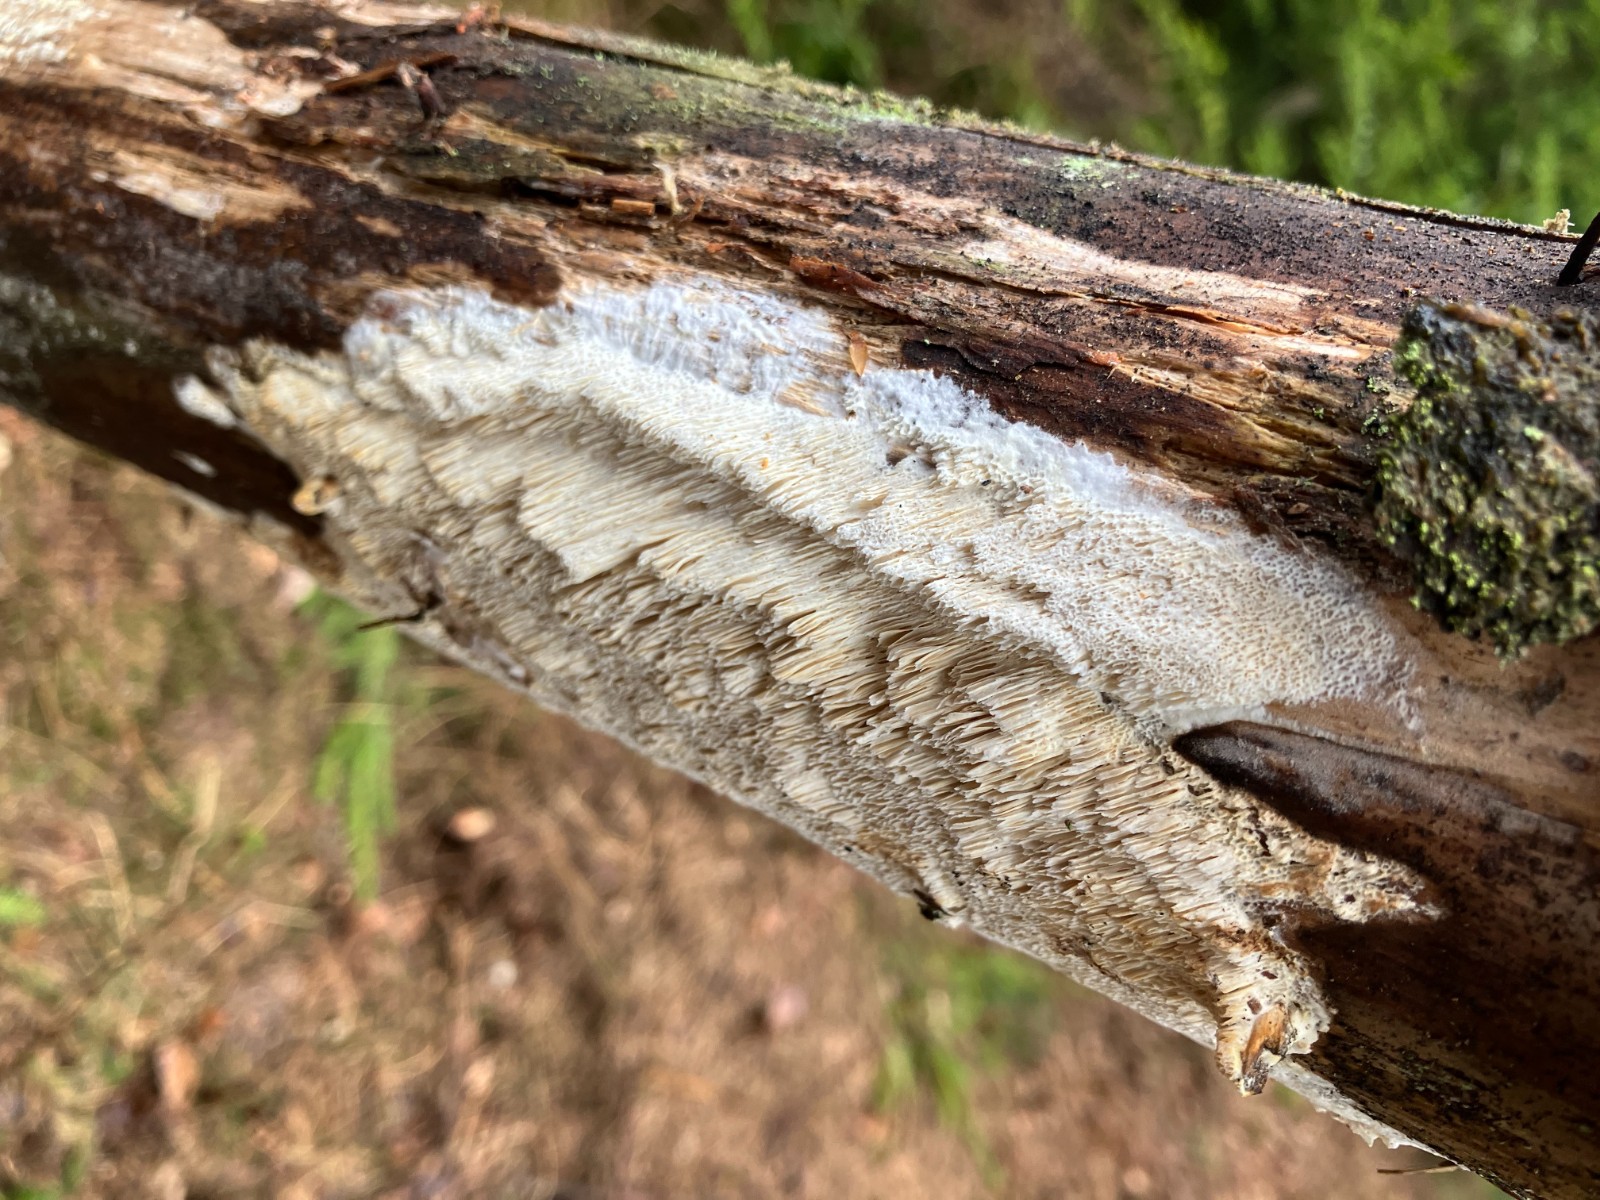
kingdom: Fungi
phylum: Basidiomycota
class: Agaricomycetes
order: Polyporales
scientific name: Polyporales
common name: poresvampordenen
